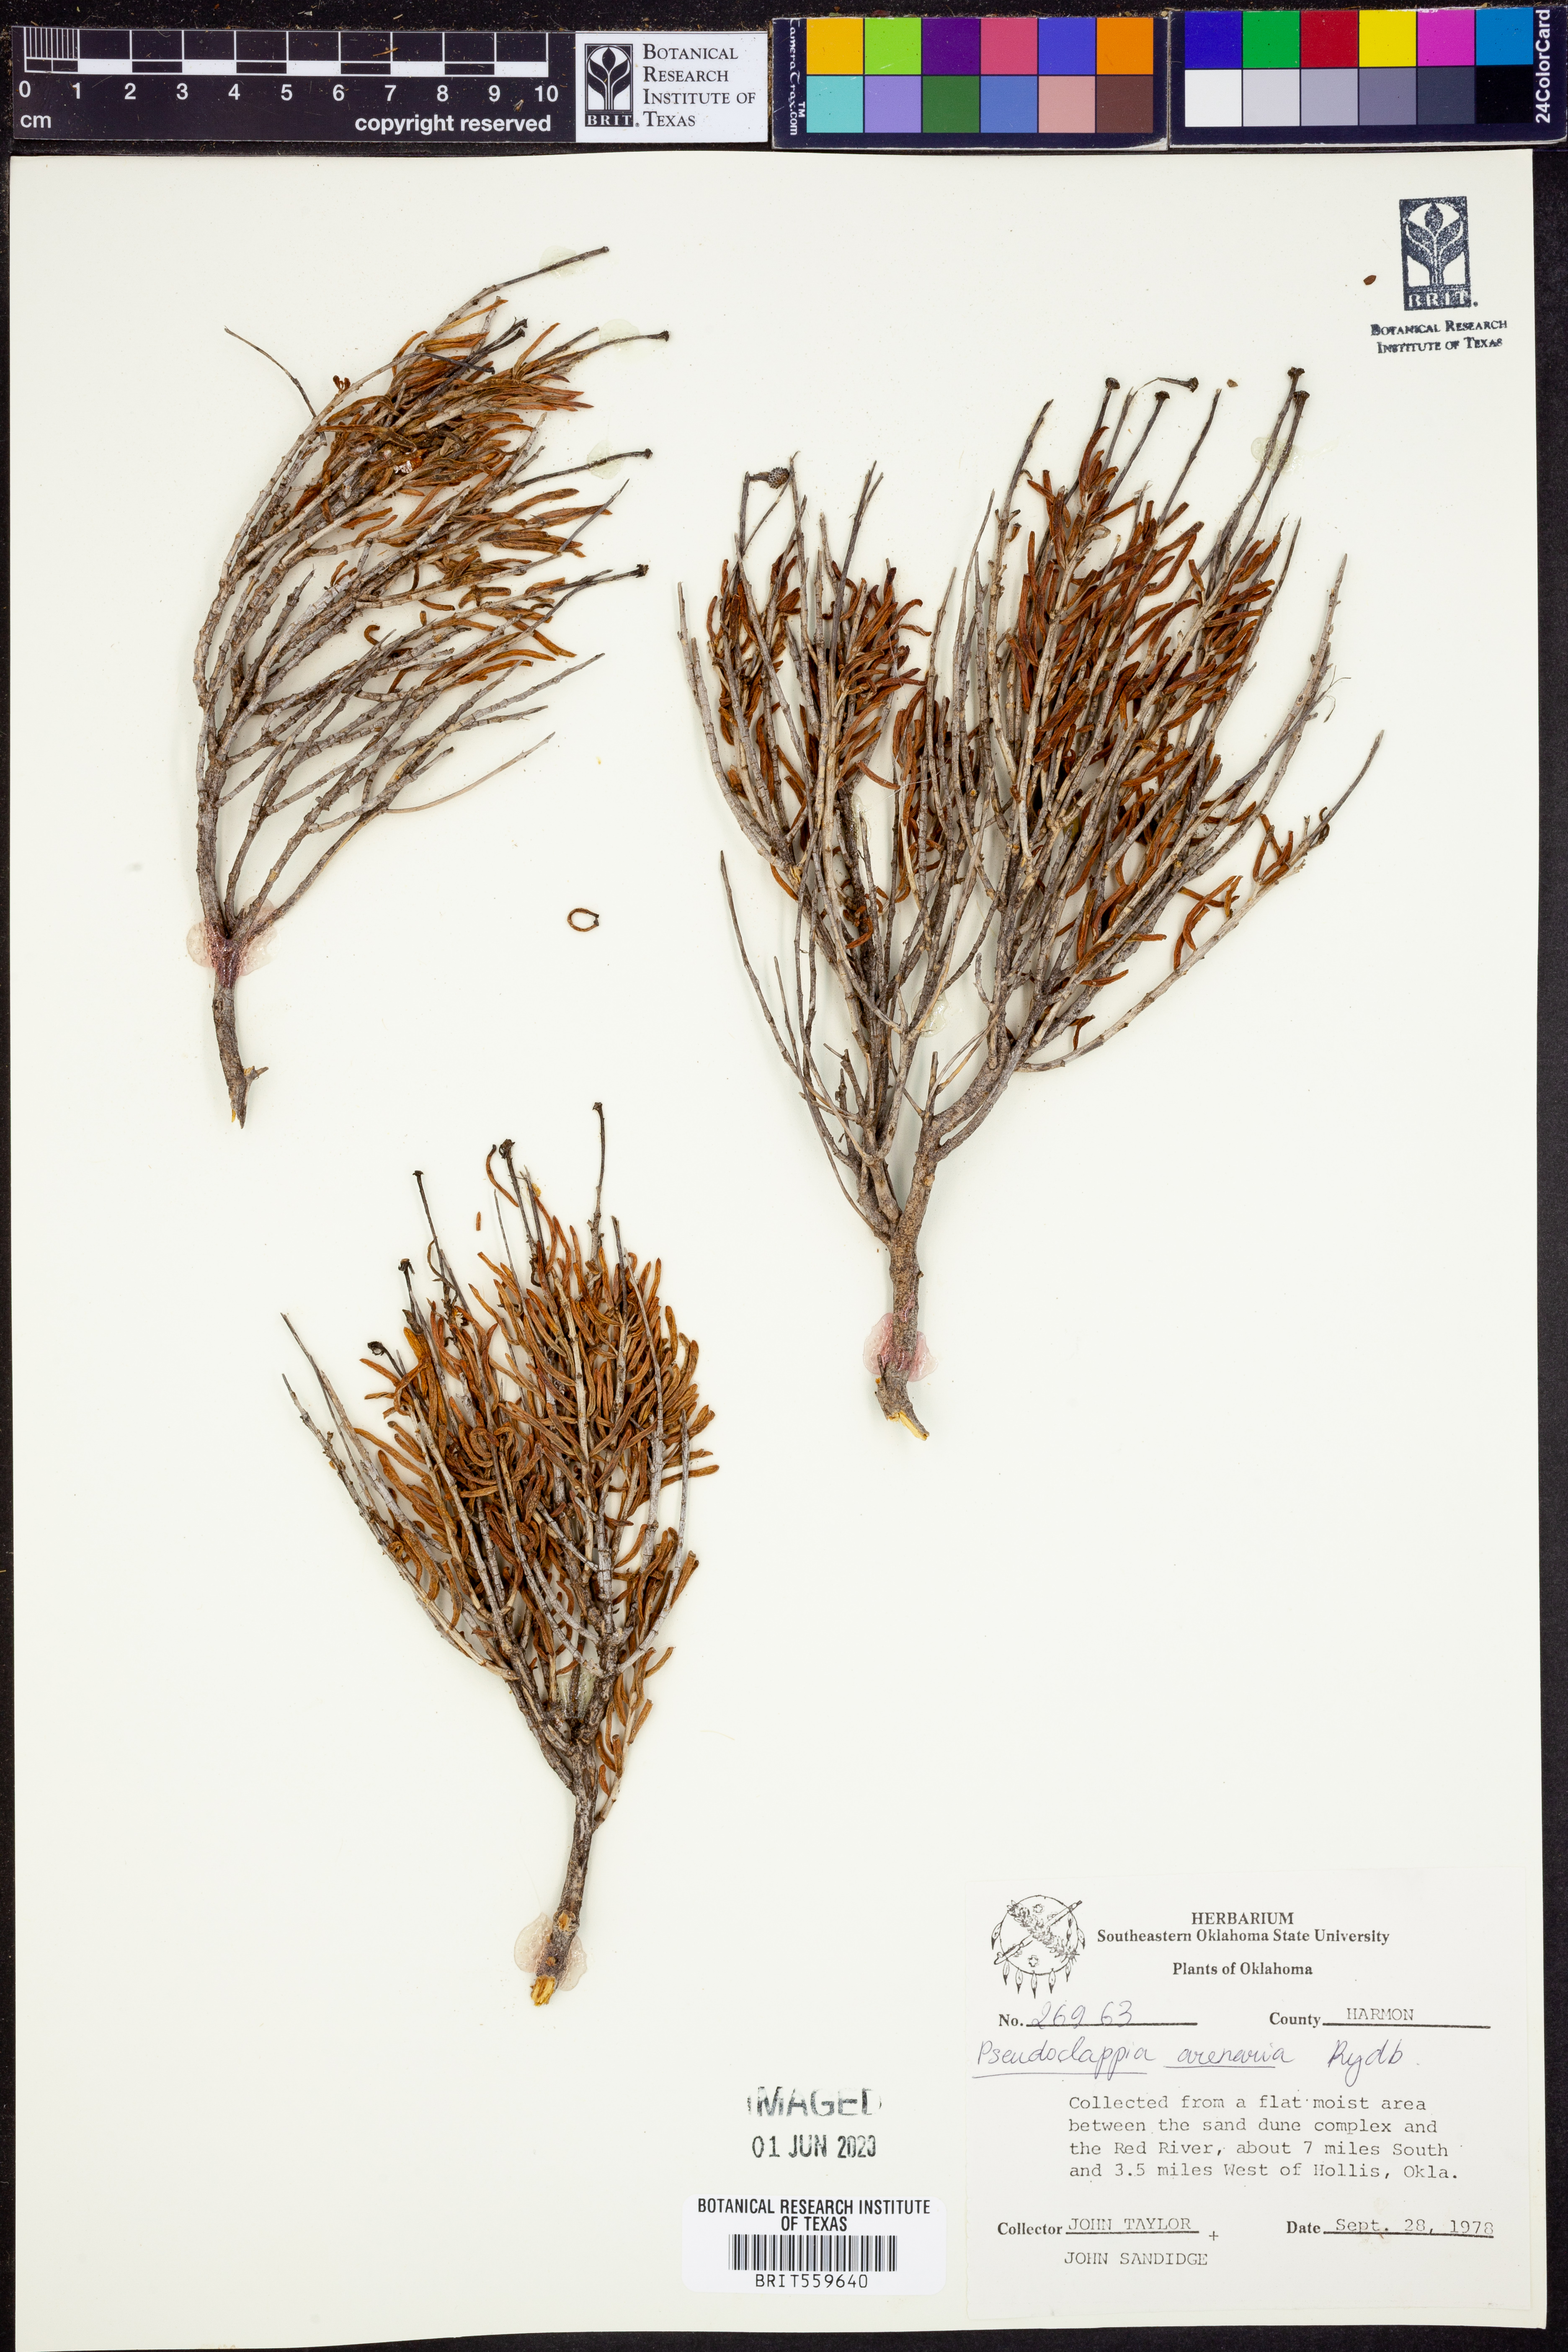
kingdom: Plantae
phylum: Tracheophyta
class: Magnoliopsida
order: Asterales
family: Asteraceae
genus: Pseudoclappia
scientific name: Pseudoclappia arenaria
